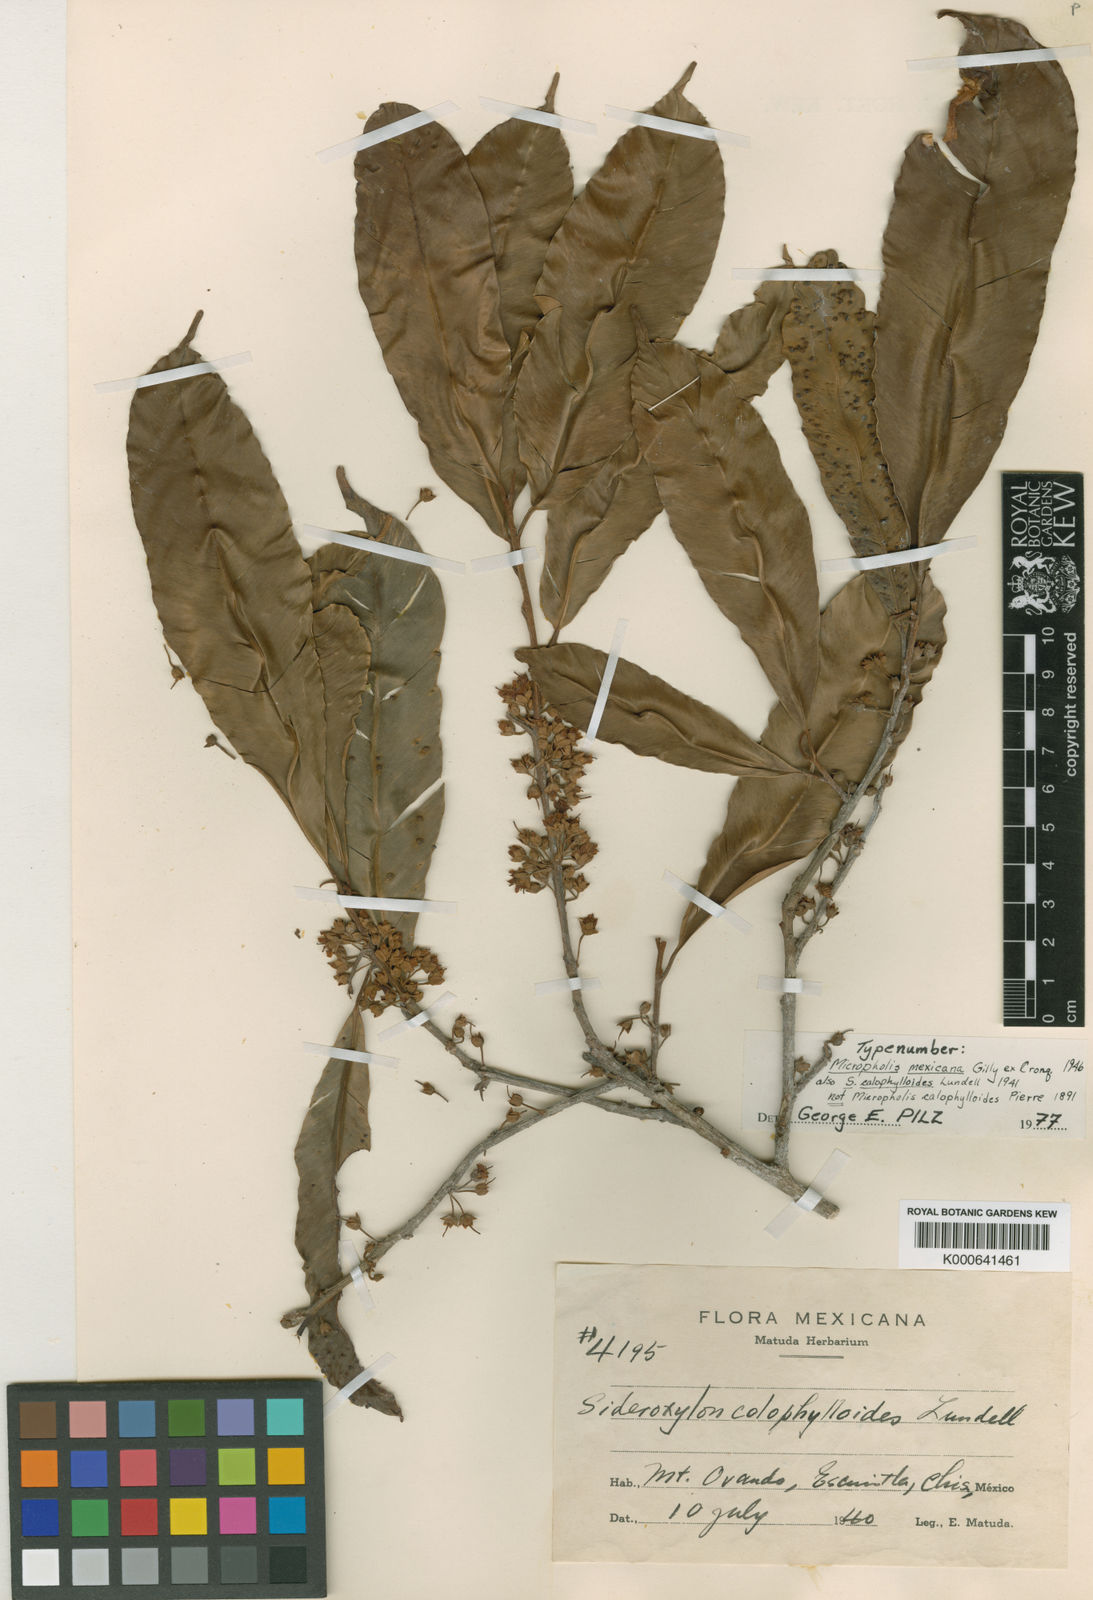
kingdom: Plantae
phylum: Tracheophyta
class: Magnoliopsida
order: Ericales
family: Sapotaceae
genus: Micropholis
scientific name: Micropholis melinoniana
